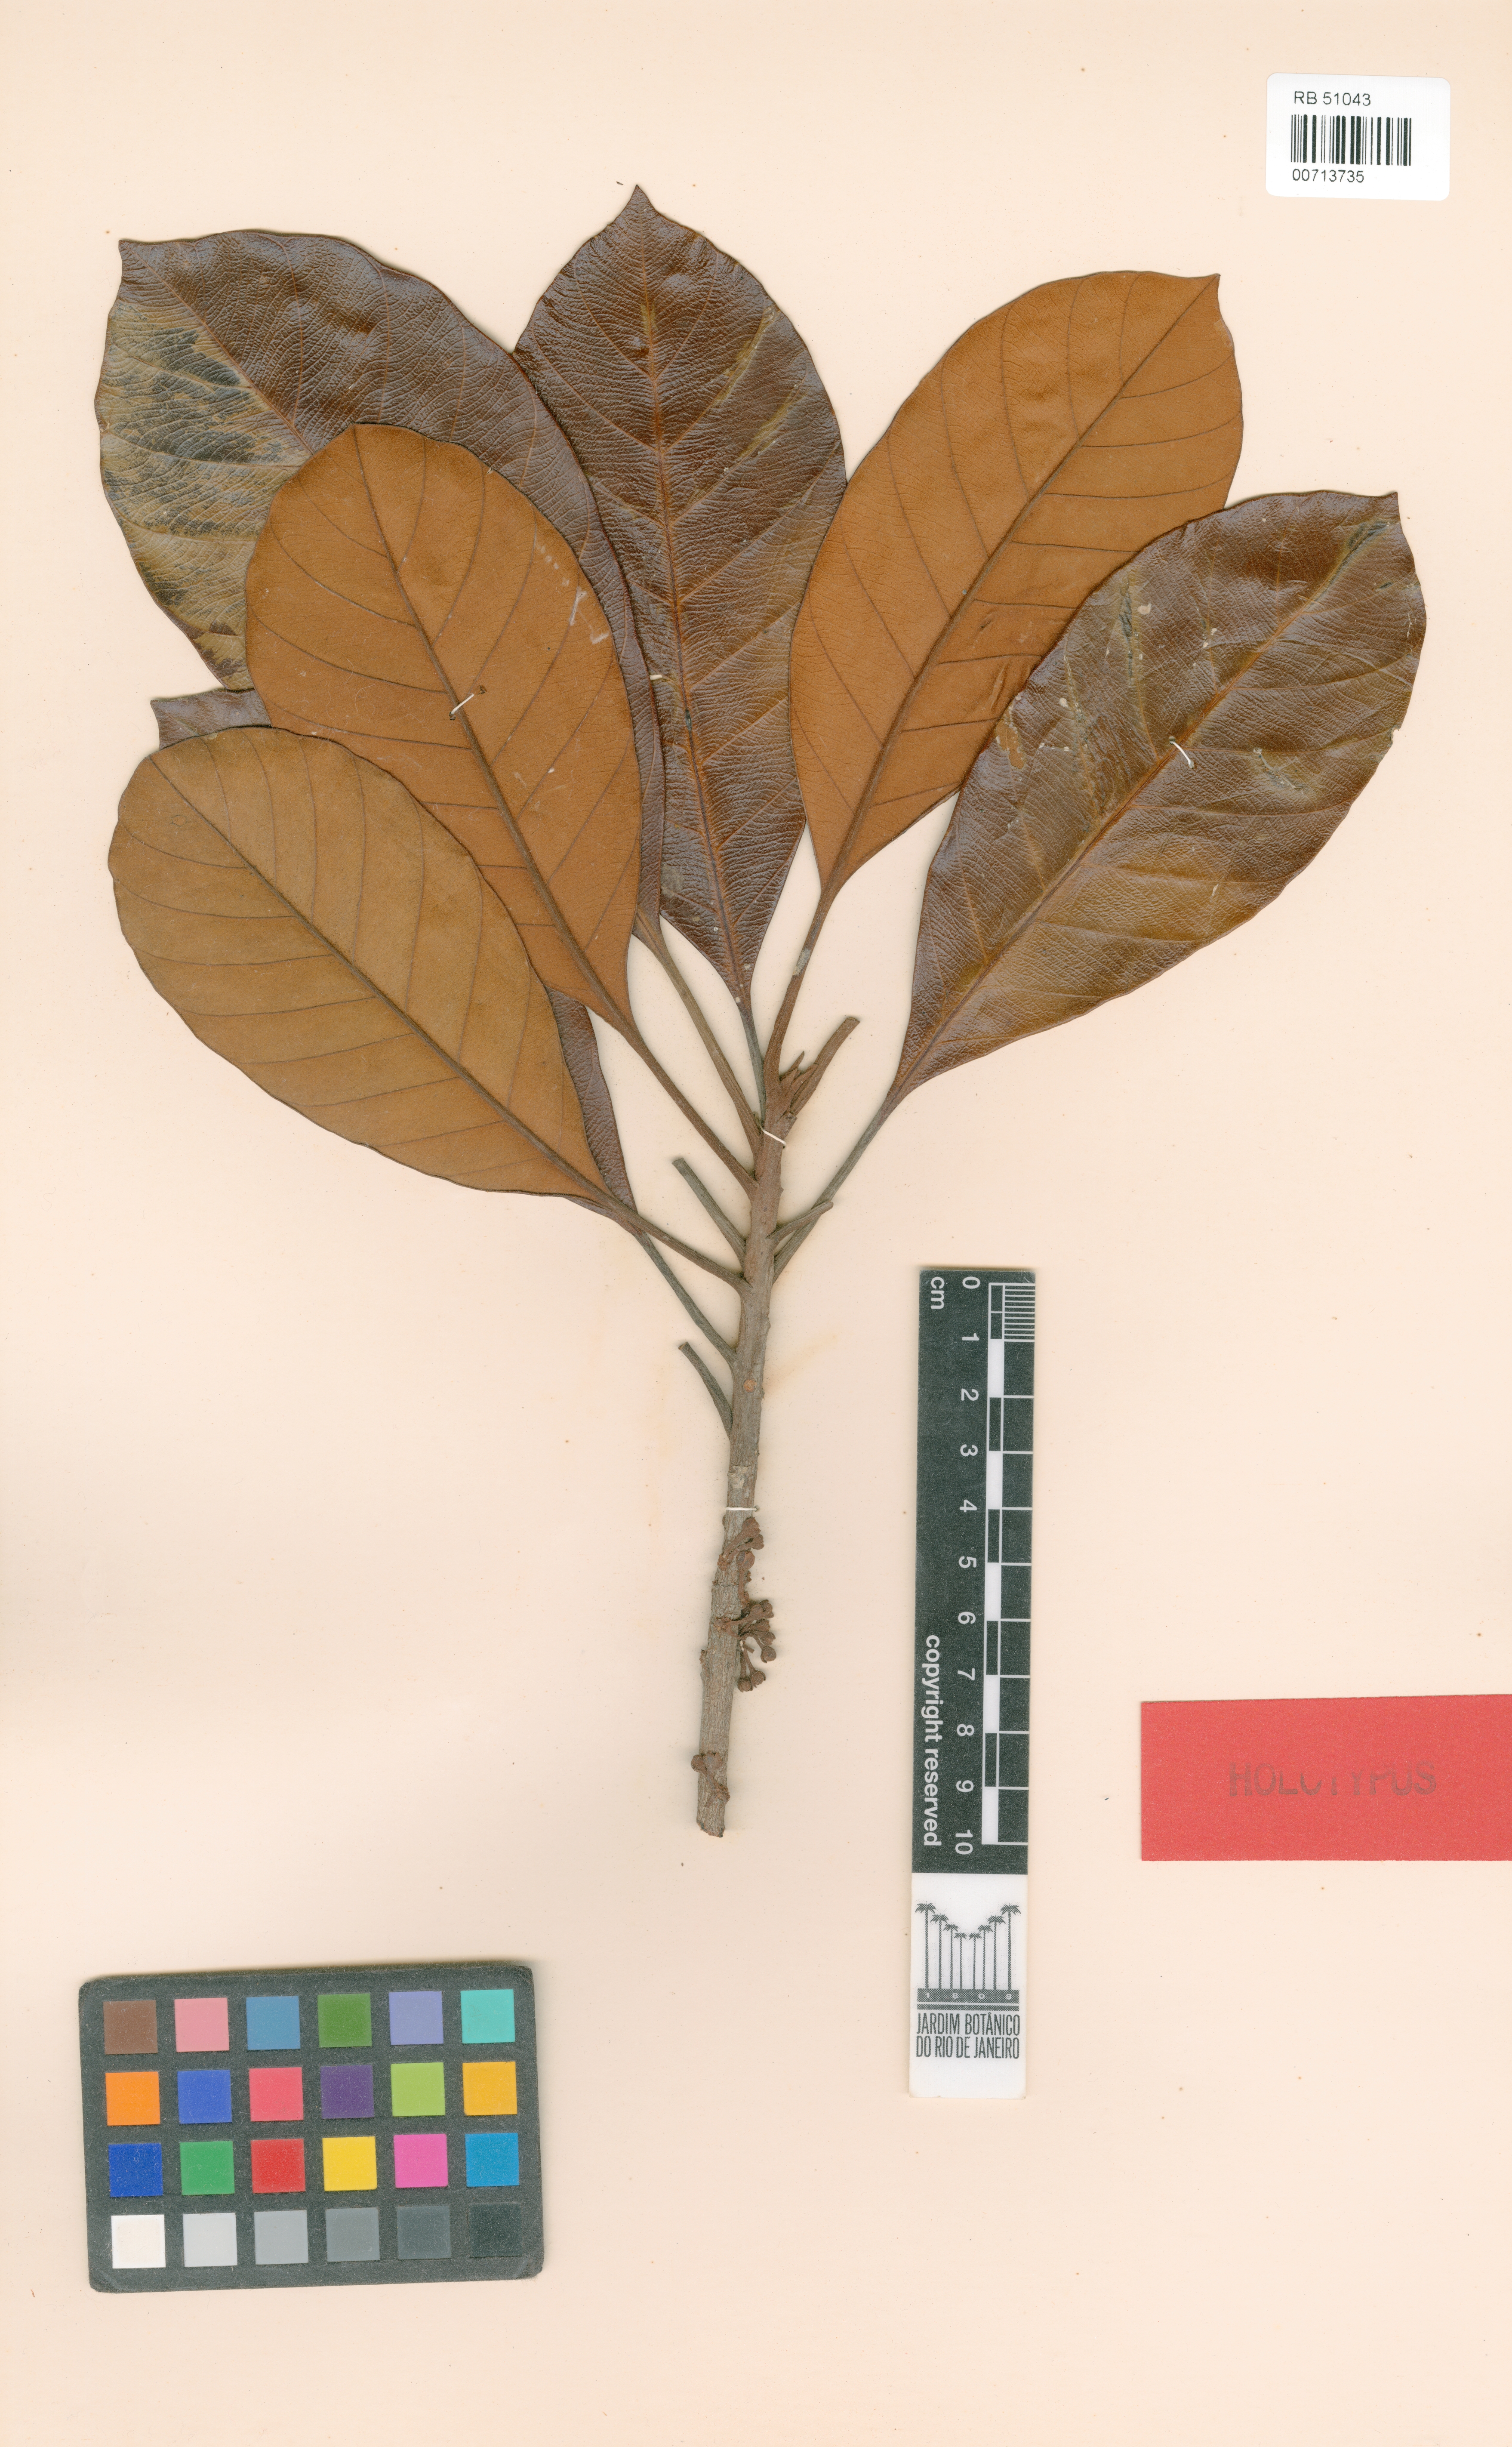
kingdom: Plantae
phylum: Tracheophyta
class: Magnoliopsida
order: Ericales
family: Sapotaceae
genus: Chrysophyllum
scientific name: Chrysophyllum prieurii
